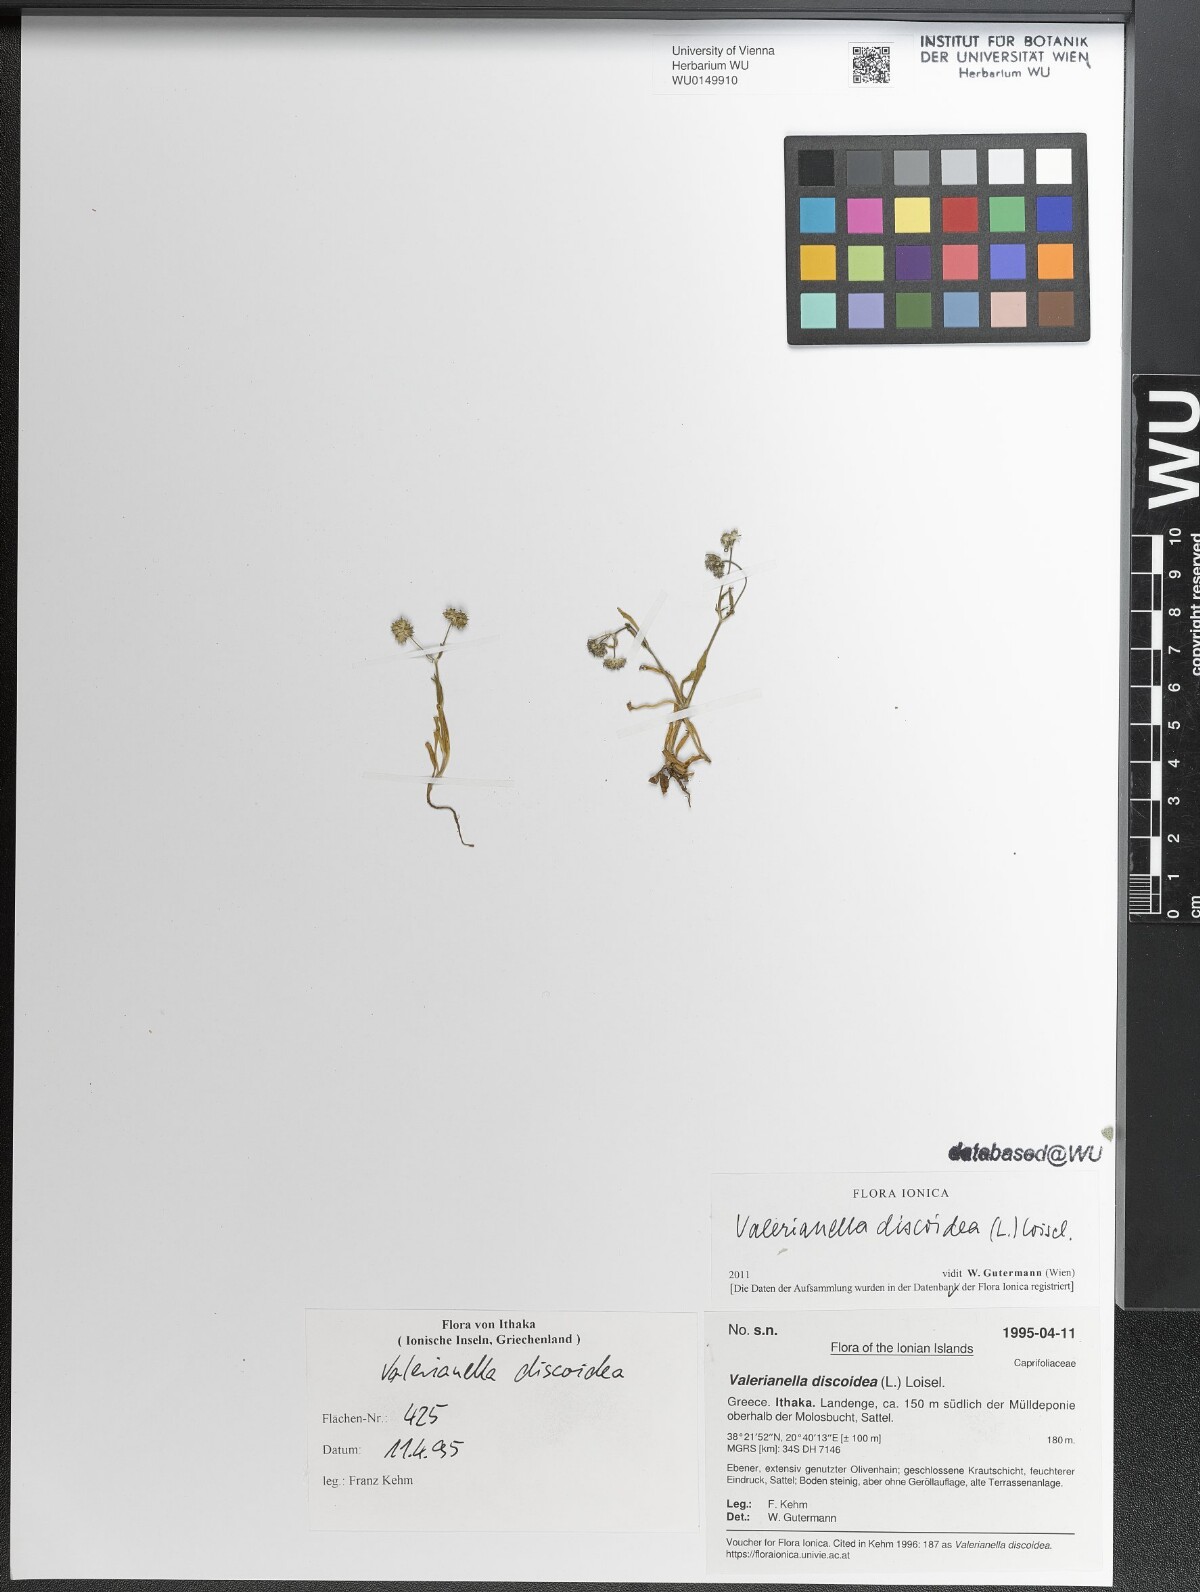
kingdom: Plantae
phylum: Tracheophyta
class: Magnoliopsida
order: Dipsacales
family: Caprifoliaceae
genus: Valerianella
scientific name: Valerianella discoidea
